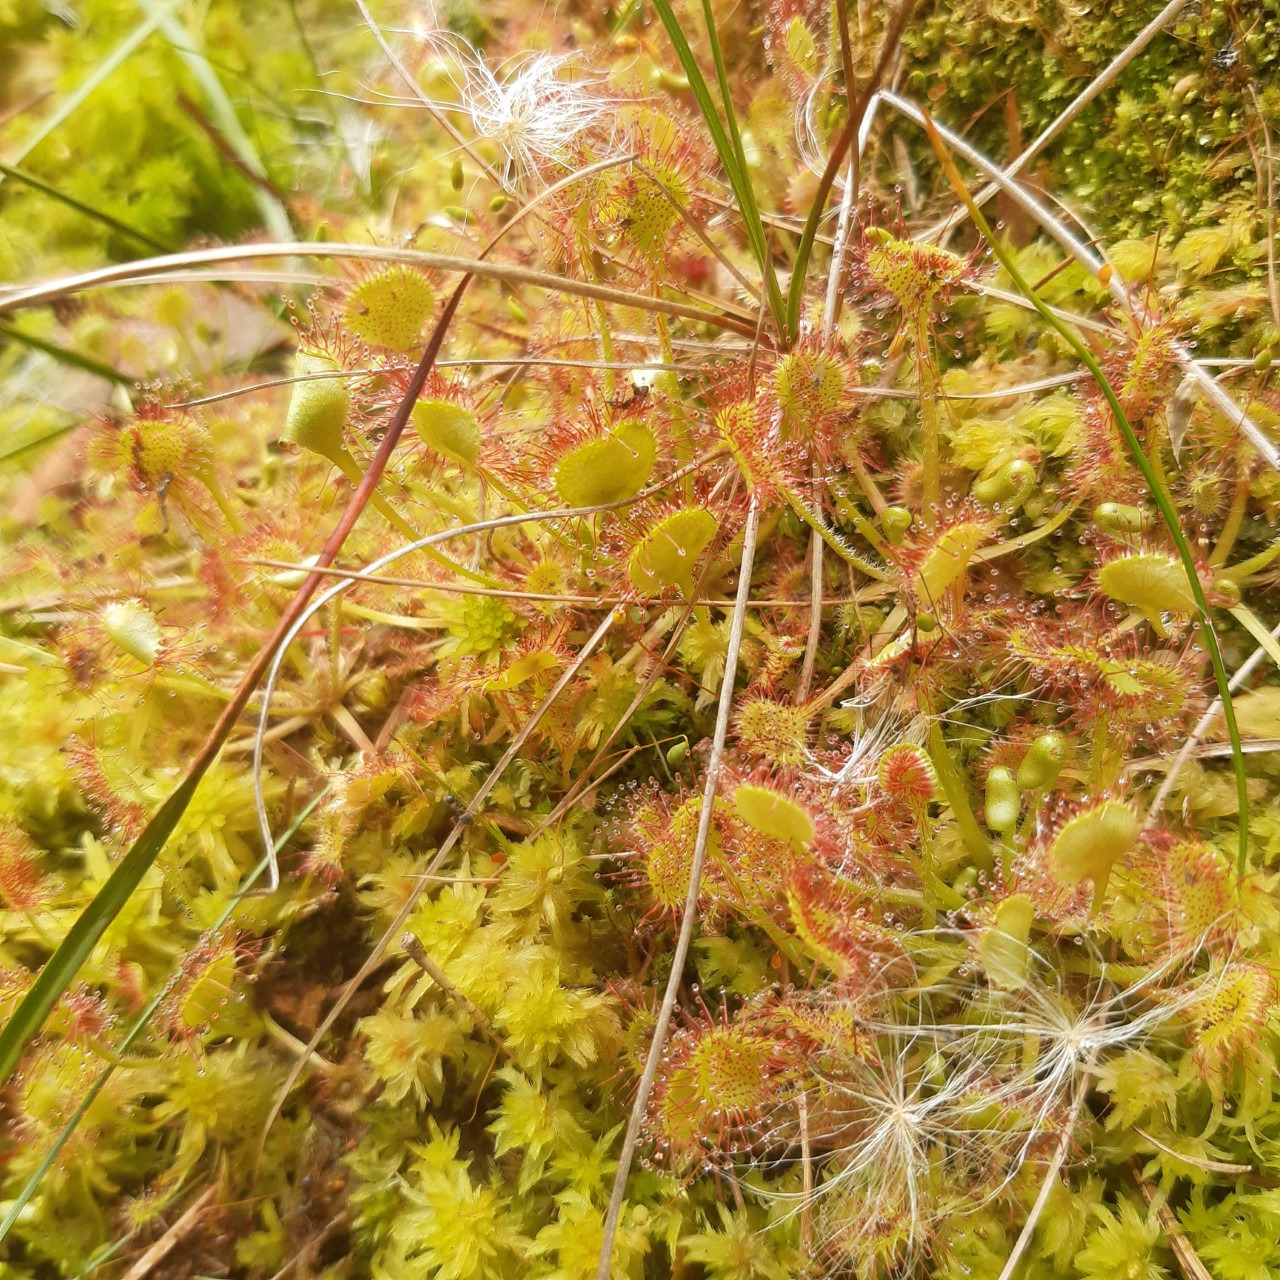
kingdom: Plantae
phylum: Tracheophyta
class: Magnoliopsida
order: Caryophyllales
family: Droseraceae
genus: Drosera
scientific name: Drosera rotundifolia
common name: Rundbladet soldug
